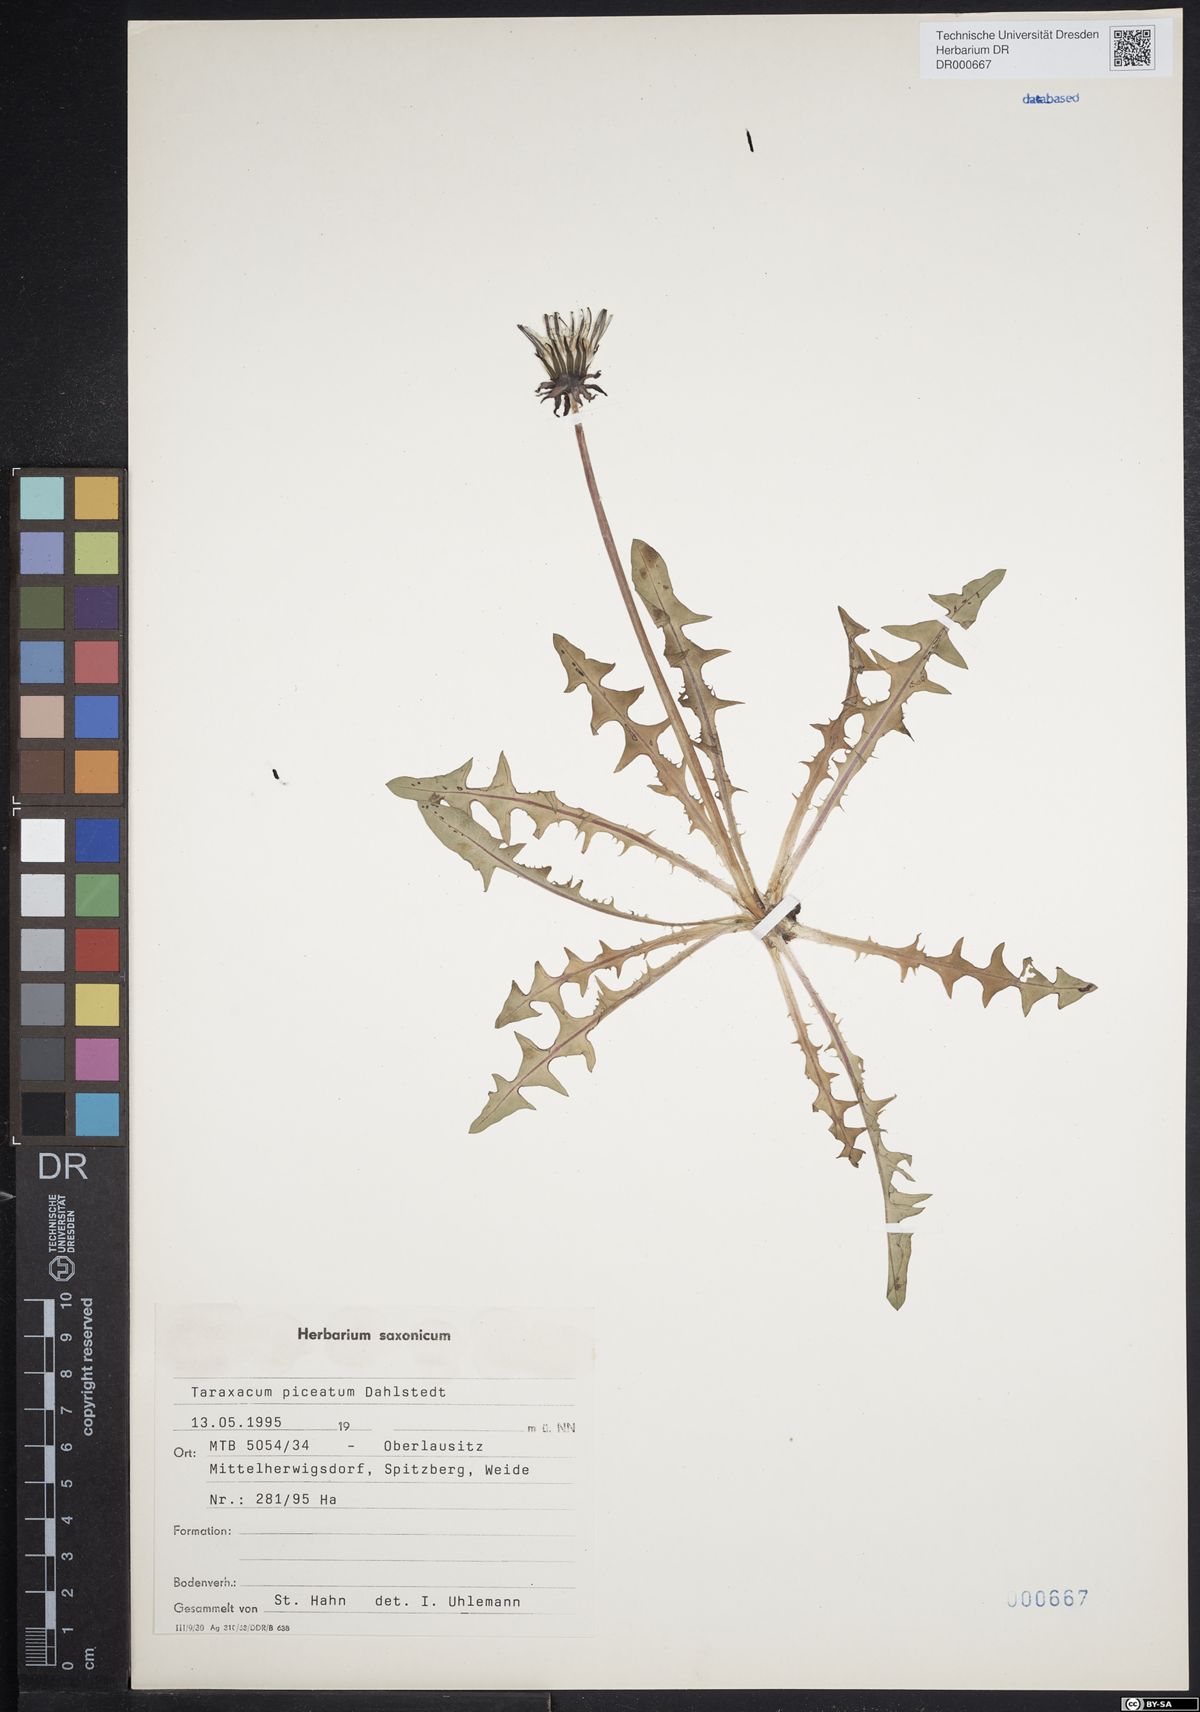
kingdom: Plantae
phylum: Tracheophyta
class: Magnoliopsida
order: Asterales
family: Asteraceae
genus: Taraxacum
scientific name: Taraxacum piceatum
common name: Leaden-bracted dandelion
